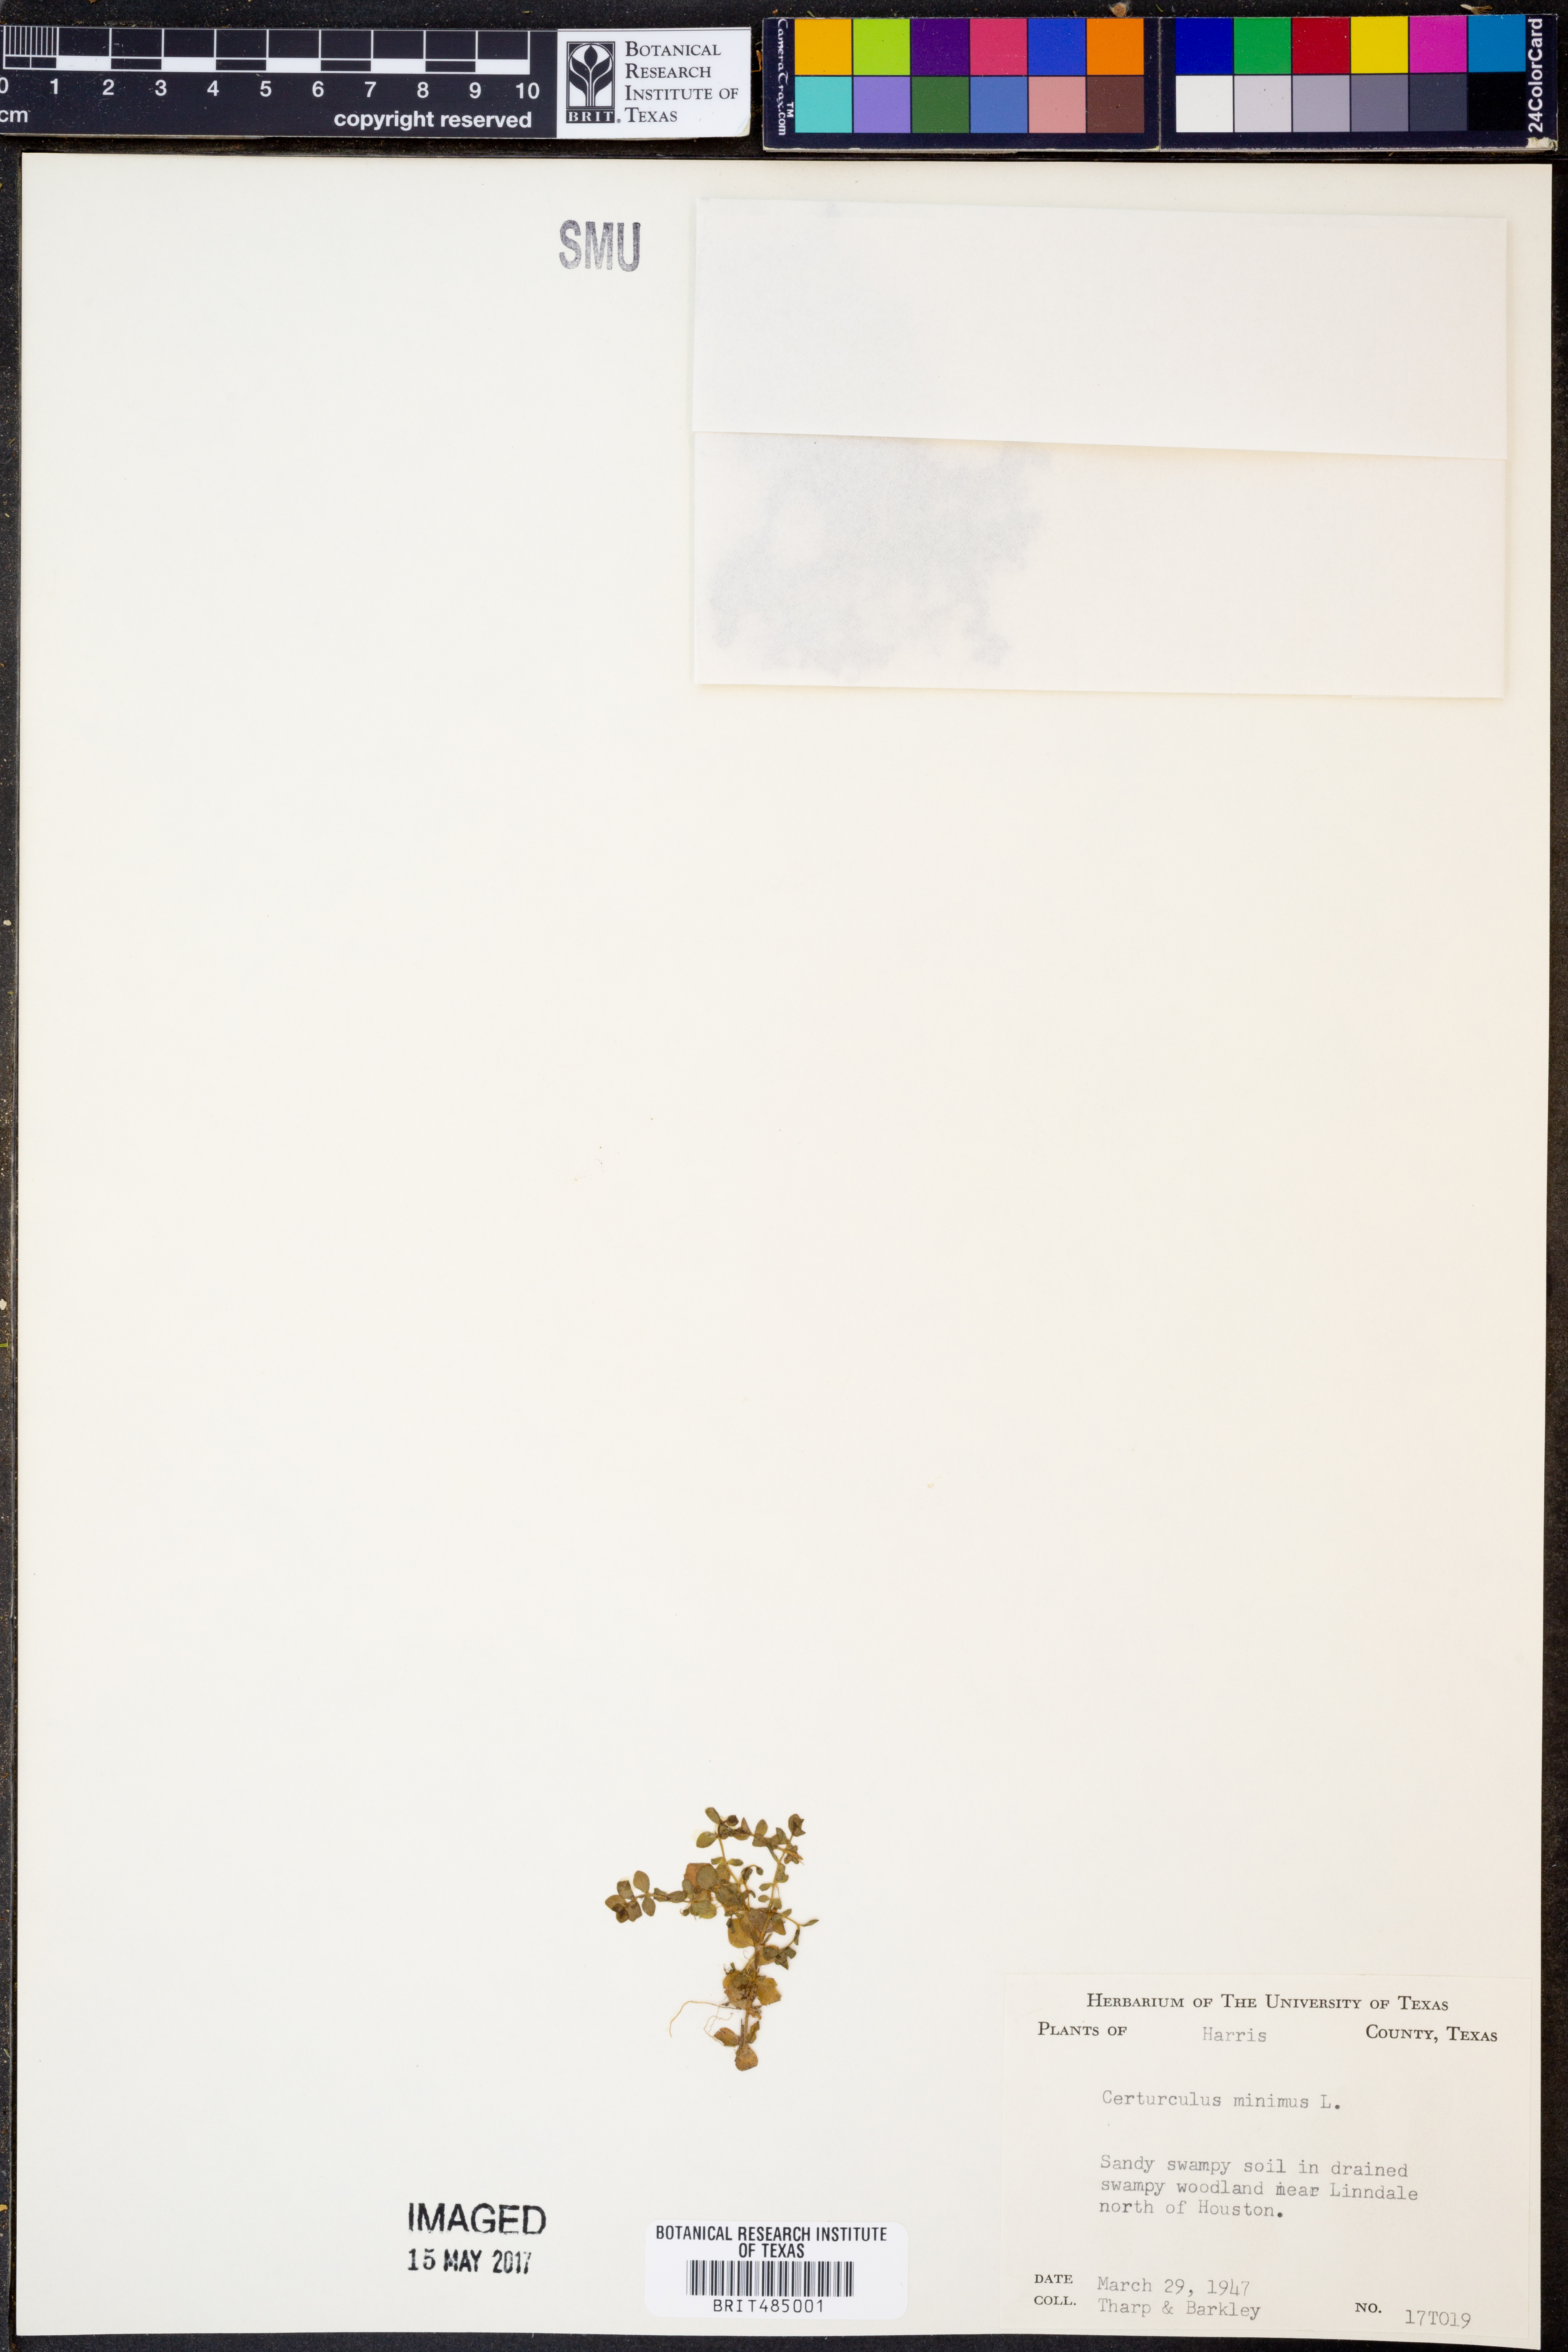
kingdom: Plantae
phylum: Tracheophyta
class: Magnoliopsida
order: Ericales
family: Primulaceae
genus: Lysimachia
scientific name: Lysimachia minima
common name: Chaffweed
